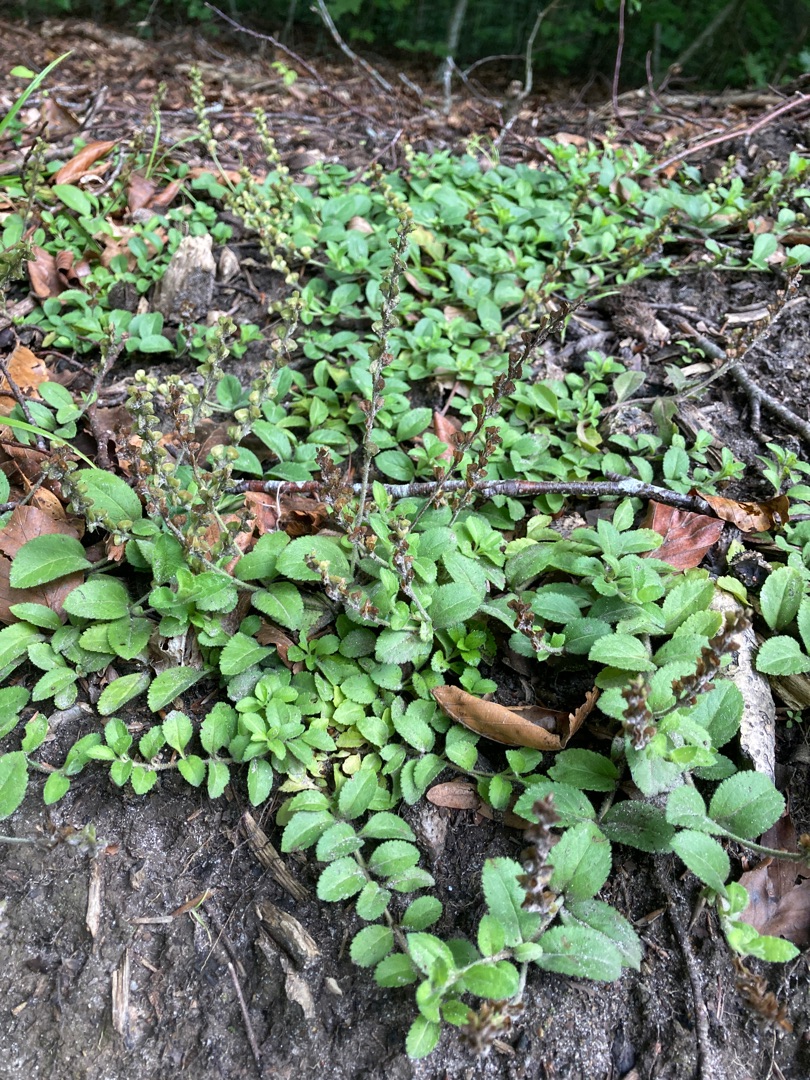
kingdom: Plantae
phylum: Tracheophyta
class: Magnoliopsida
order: Lamiales
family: Plantaginaceae
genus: Veronica
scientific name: Veronica officinalis
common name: Læge-ærenpris
